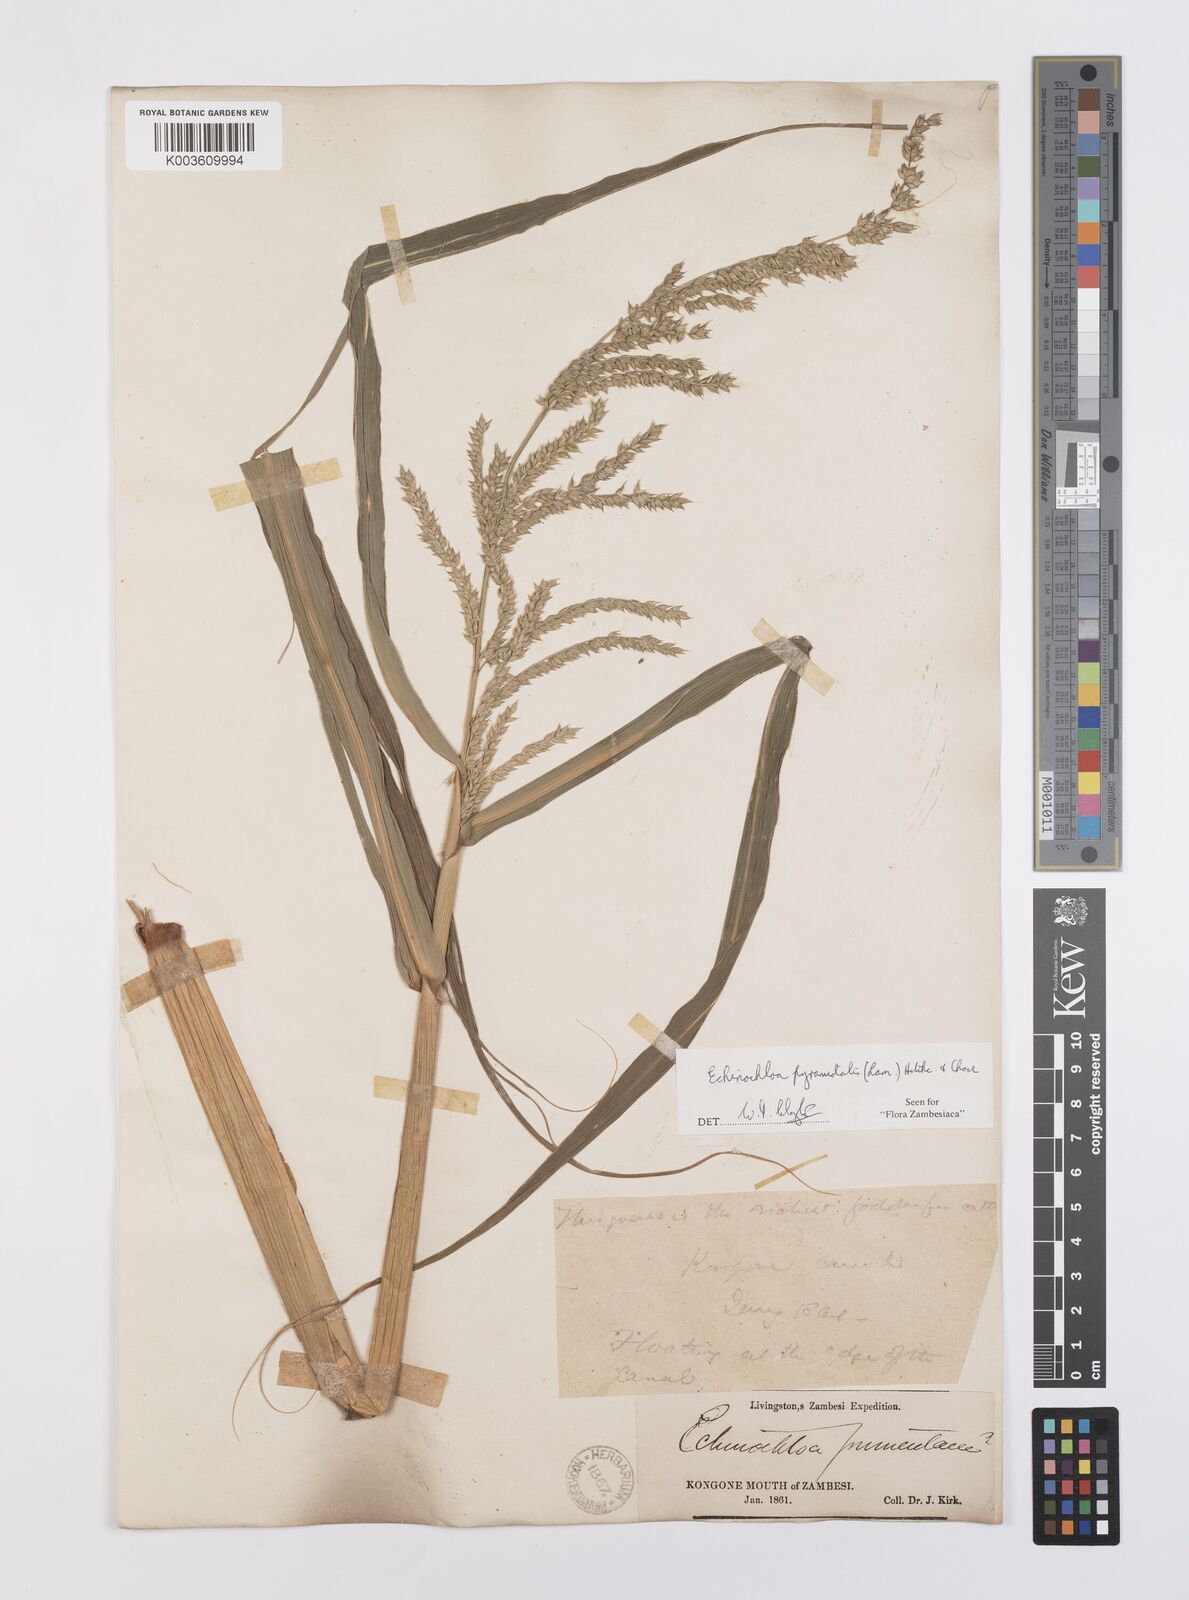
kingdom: Plantae
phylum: Tracheophyta
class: Liliopsida
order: Poales
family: Poaceae
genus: Echinochloa
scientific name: Echinochloa pyramidalis
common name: Antelope grass
